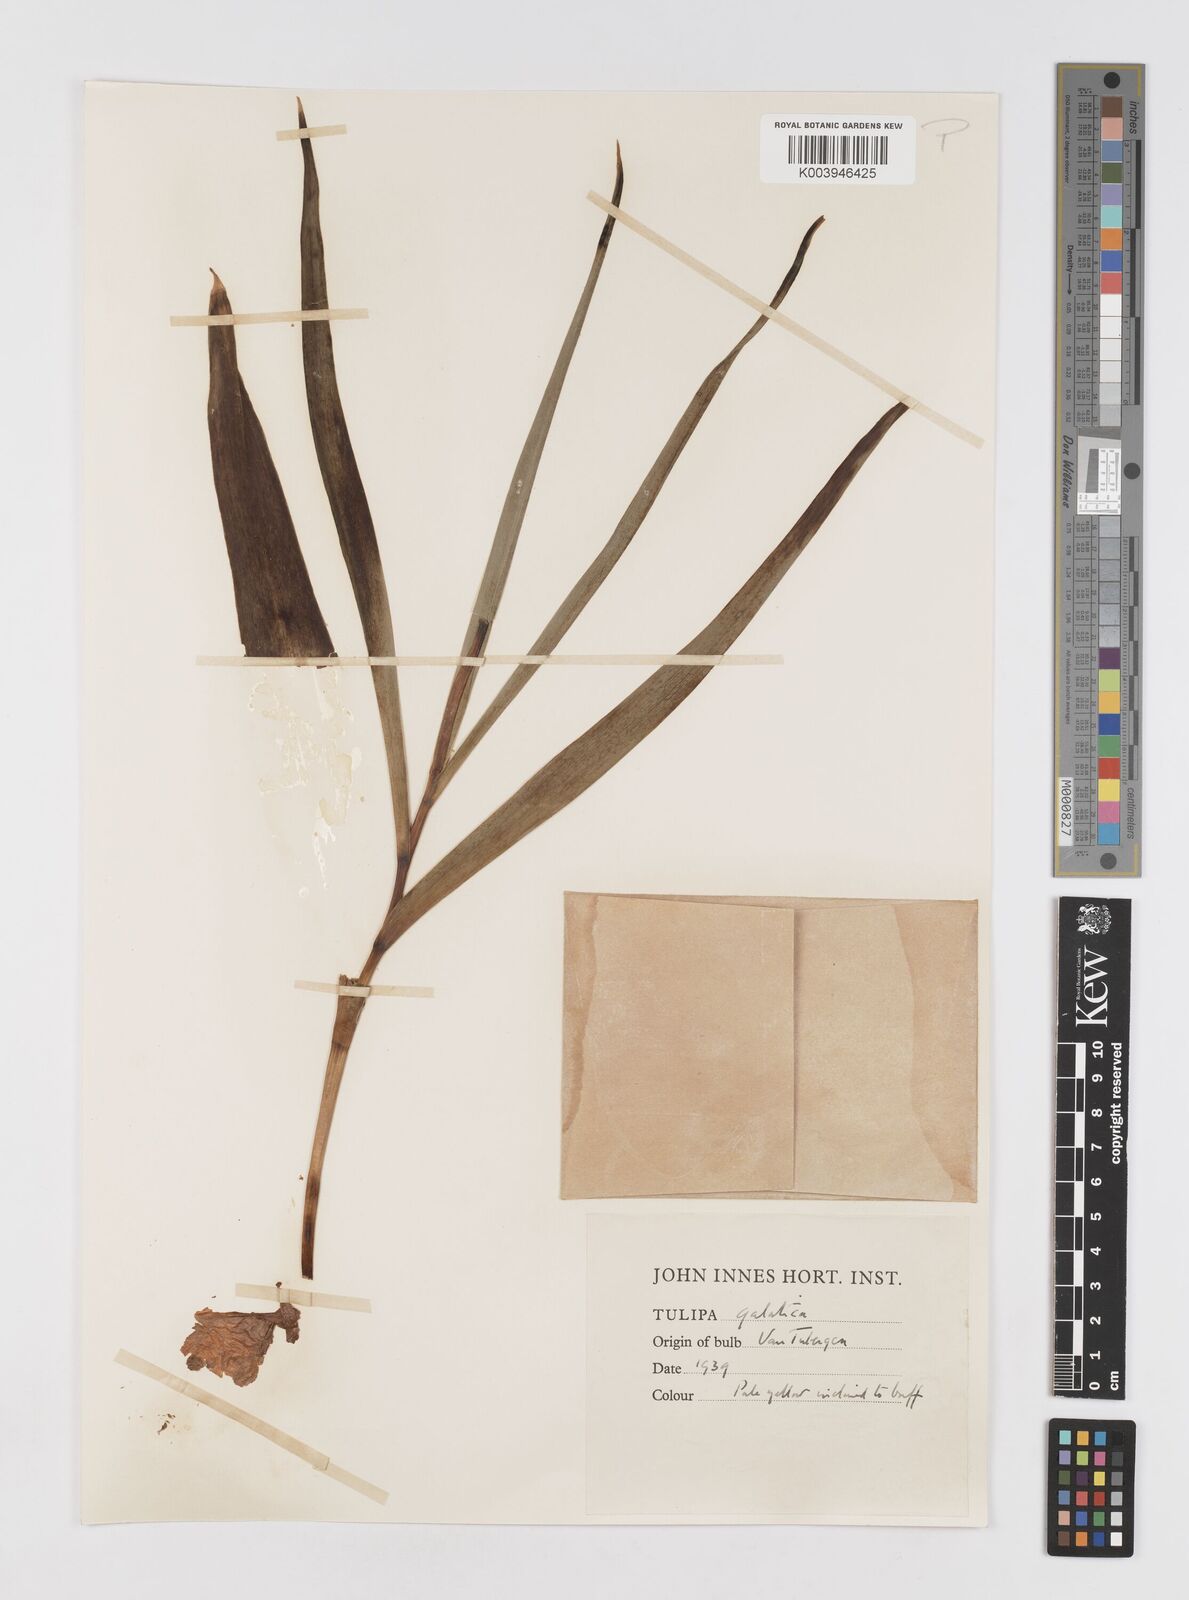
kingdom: Plantae
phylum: Tracheophyta
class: Liliopsida
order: Liliales
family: Liliaceae
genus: Tulipa
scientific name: Tulipa
